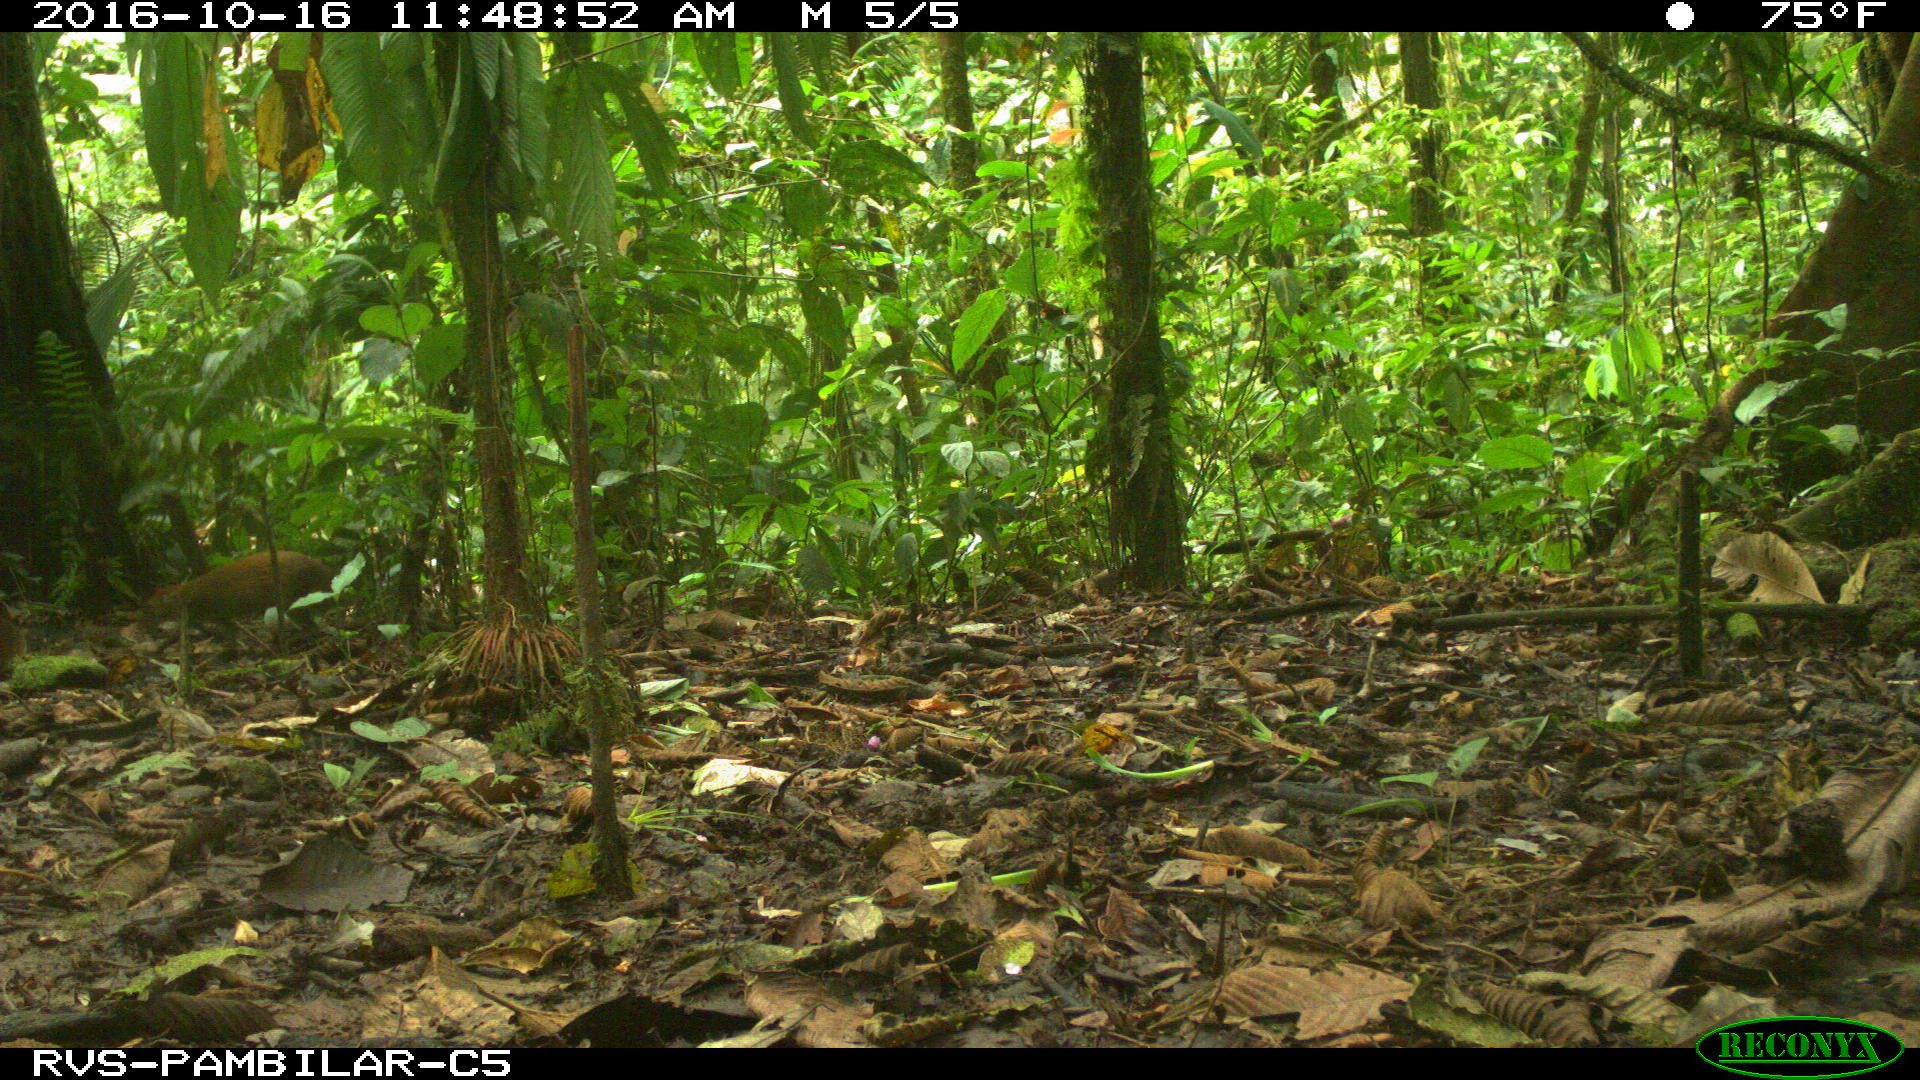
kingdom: Animalia
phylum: Chordata
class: Mammalia
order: Rodentia
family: Dasyproctidae
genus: Dasyprocta
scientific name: Dasyprocta punctata
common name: Central american agouti
